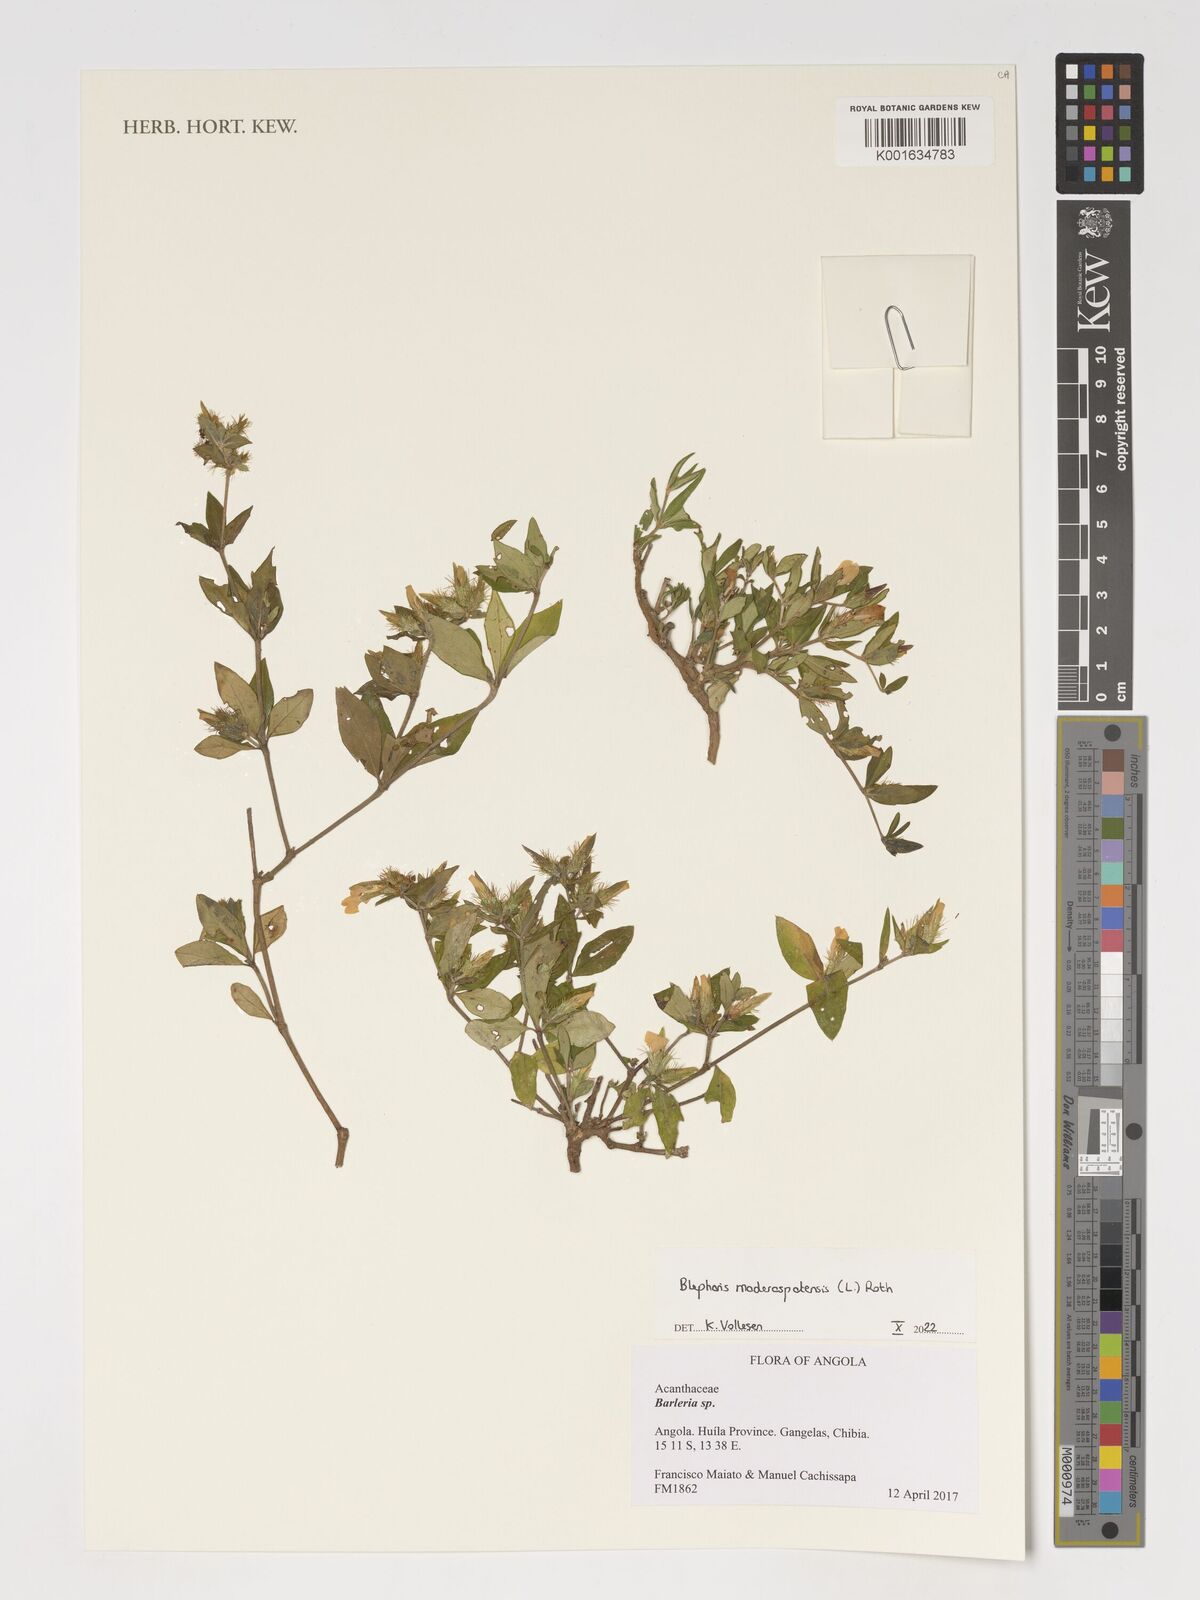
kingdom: Plantae
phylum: Tracheophyta
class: Magnoliopsida
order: Lamiales
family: Acanthaceae
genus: Blepharis
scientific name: Blepharis maderaspatensis
